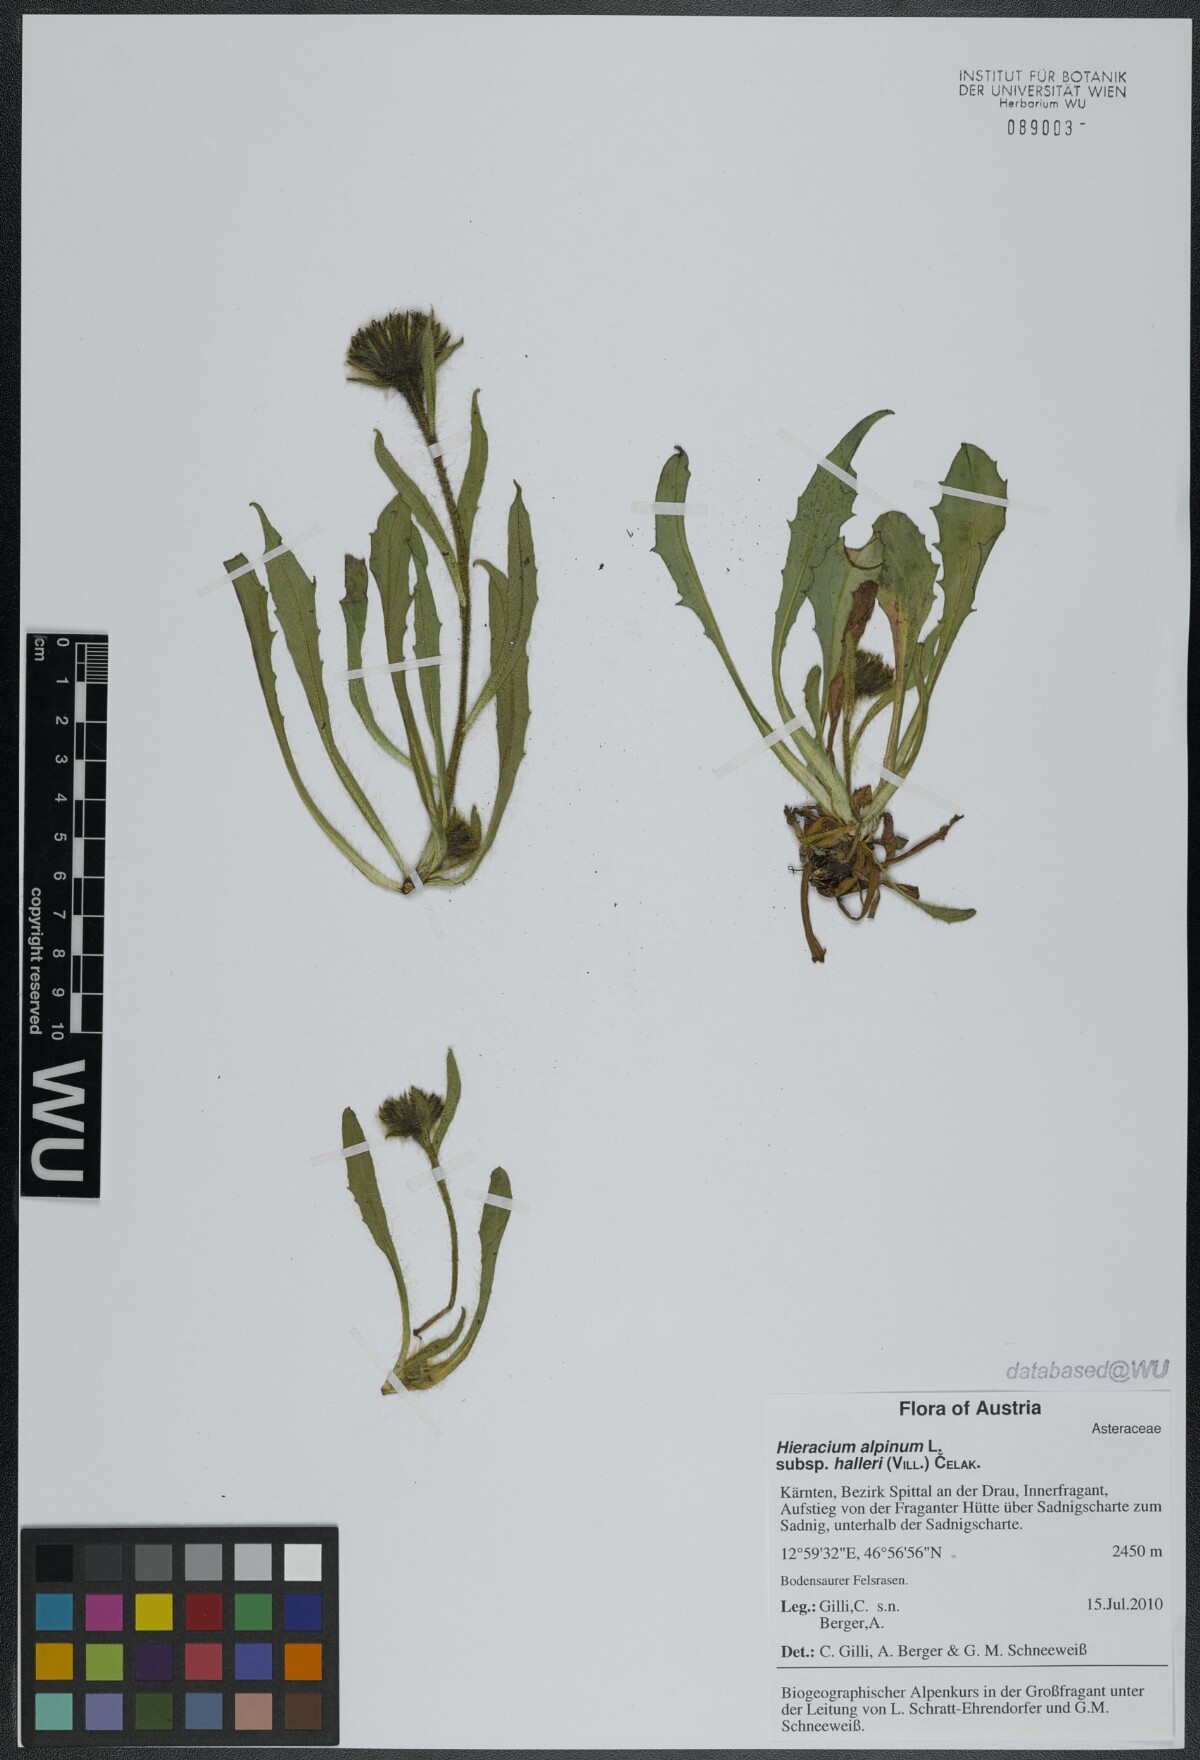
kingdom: Plantae
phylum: Tracheophyta
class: Magnoliopsida
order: Asterales
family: Asteraceae
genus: Hieracium
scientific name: Hieracium alpinum
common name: Alpine hawkweed
